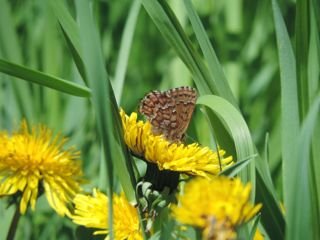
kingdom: Animalia
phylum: Arthropoda
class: Insecta
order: Lepidoptera
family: Lycaenidae
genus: Incisalia
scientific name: Incisalia niphon
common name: Eastern Pine Elfin
